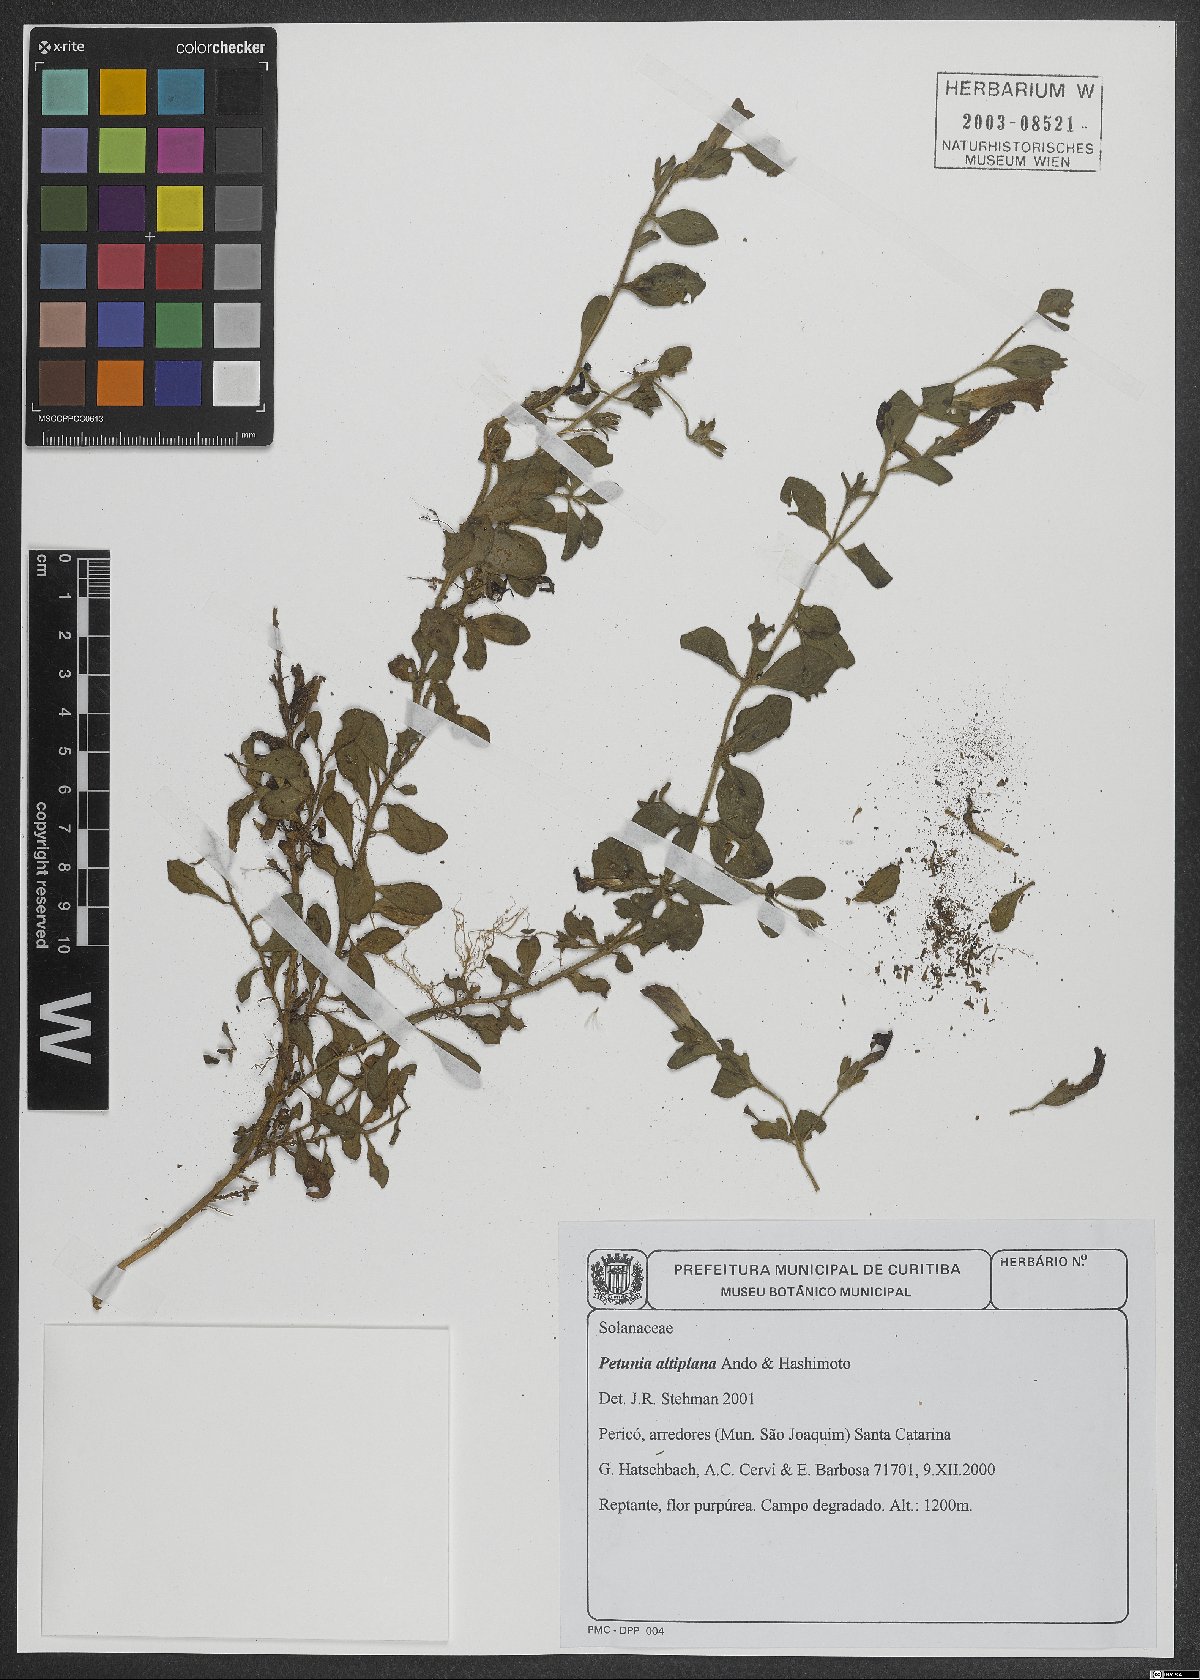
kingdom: Plantae
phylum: Tracheophyta
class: Magnoliopsida
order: Solanales
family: Solanaceae
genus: Petunia
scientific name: Petunia altiplana
